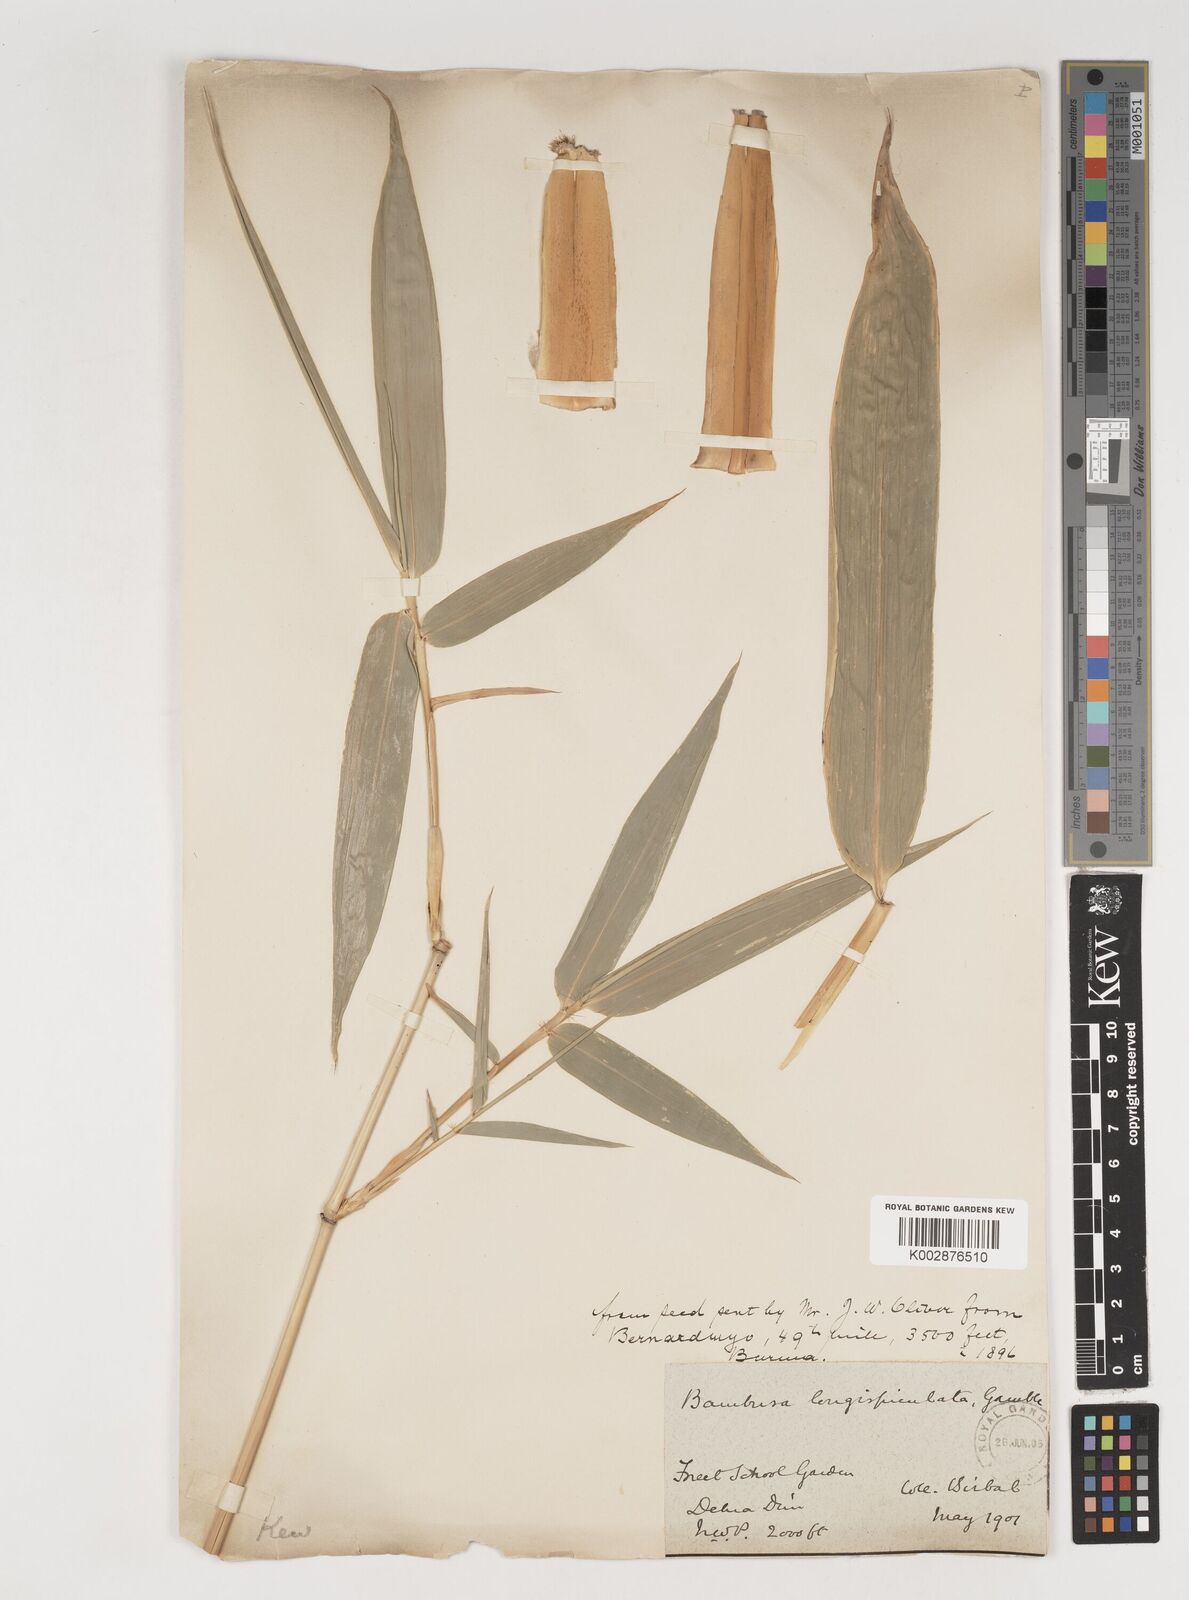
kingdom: Plantae
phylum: Tracheophyta
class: Liliopsida
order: Poales
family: Poaceae
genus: Bambusa
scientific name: Bambusa longispiculata
